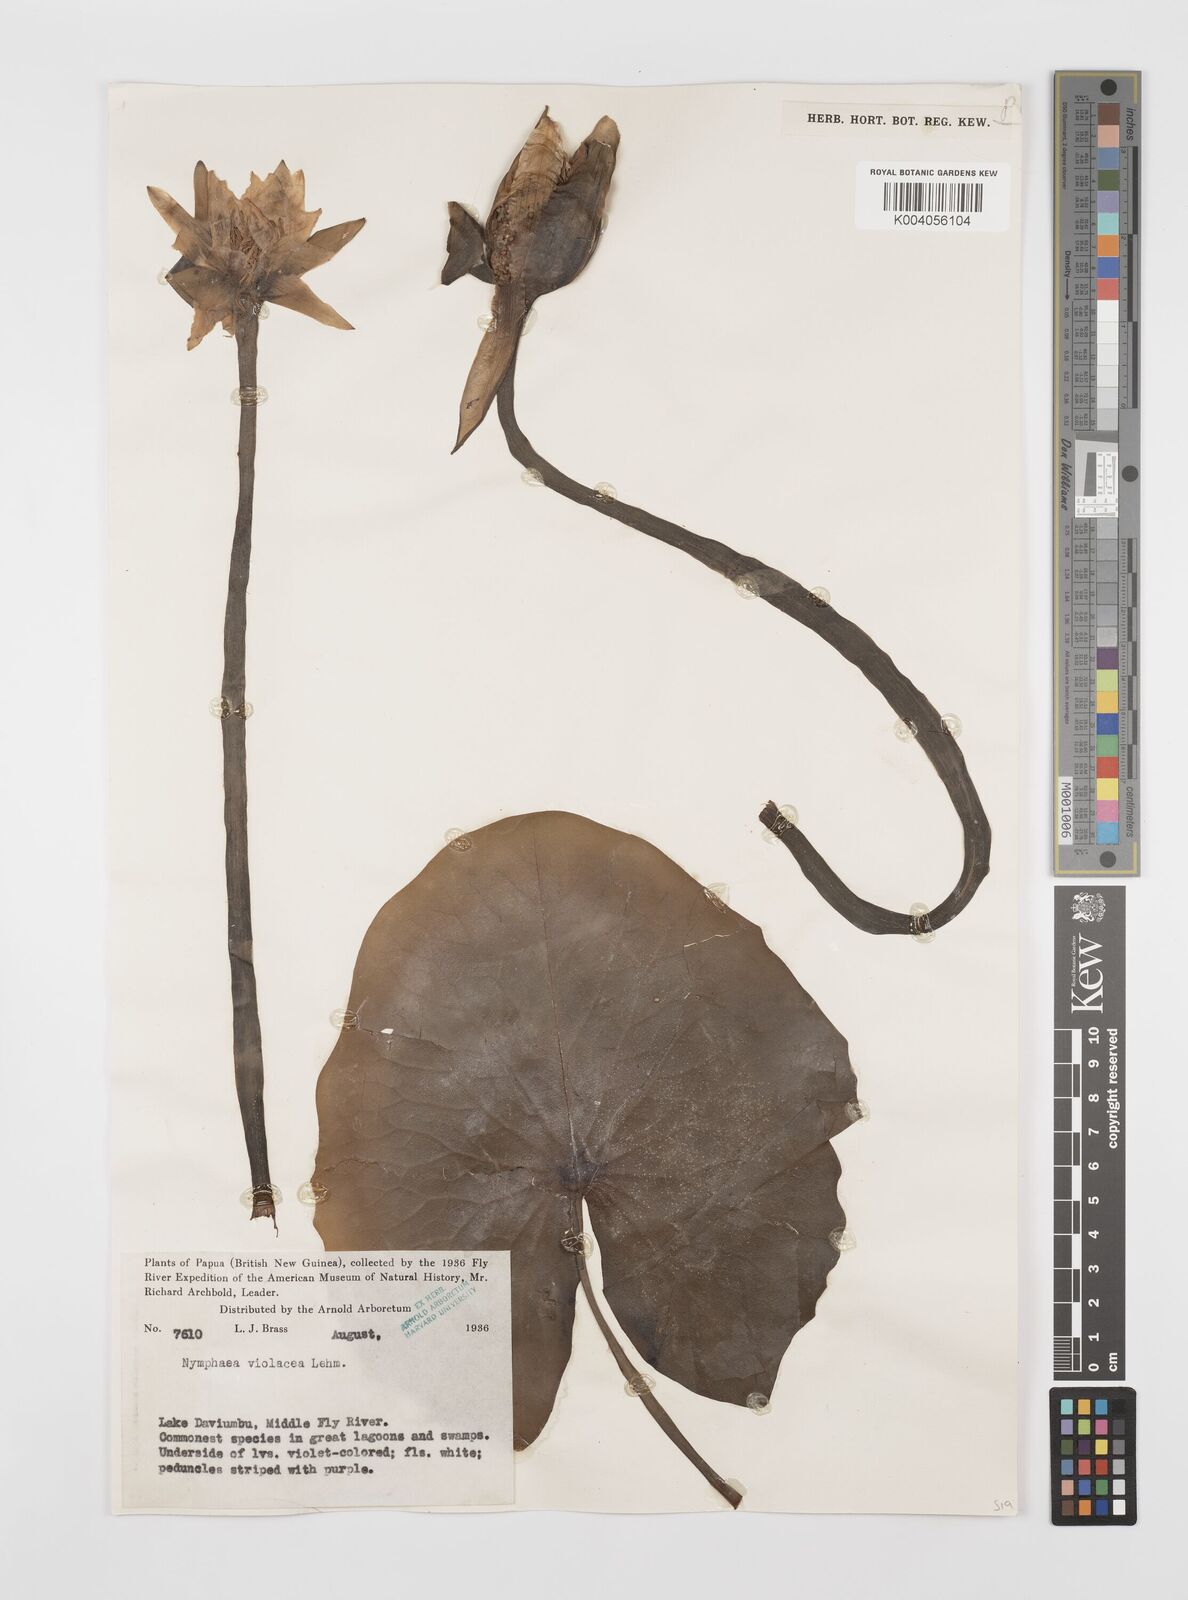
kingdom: Plantae
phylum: Tracheophyta
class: Magnoliopsida
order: Nymphaeales
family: Nymphaeaceae
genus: Nymphaea
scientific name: Nymphaea violacea
